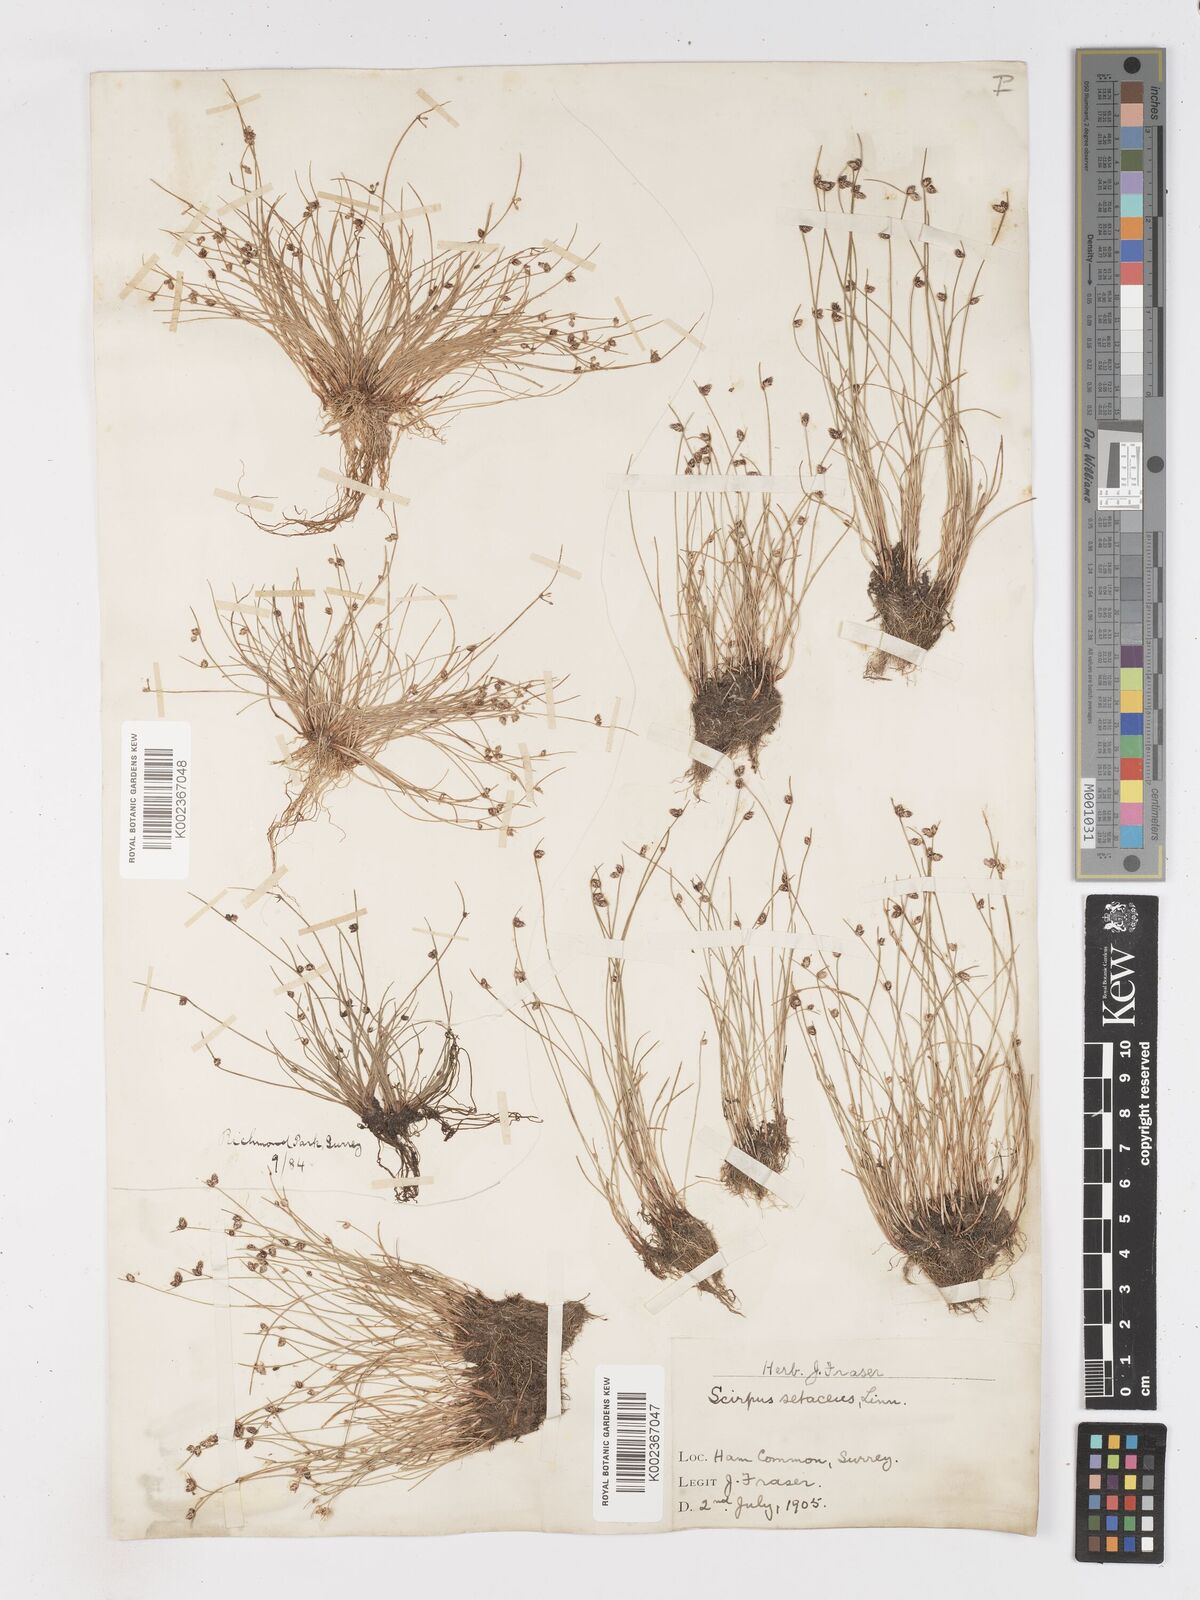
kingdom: Plantae
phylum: Tracheophyta
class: Liliopsida
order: Poales
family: Cyperaceae
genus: Isolepis
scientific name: Isolepis setacea
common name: Bristle club-rush
